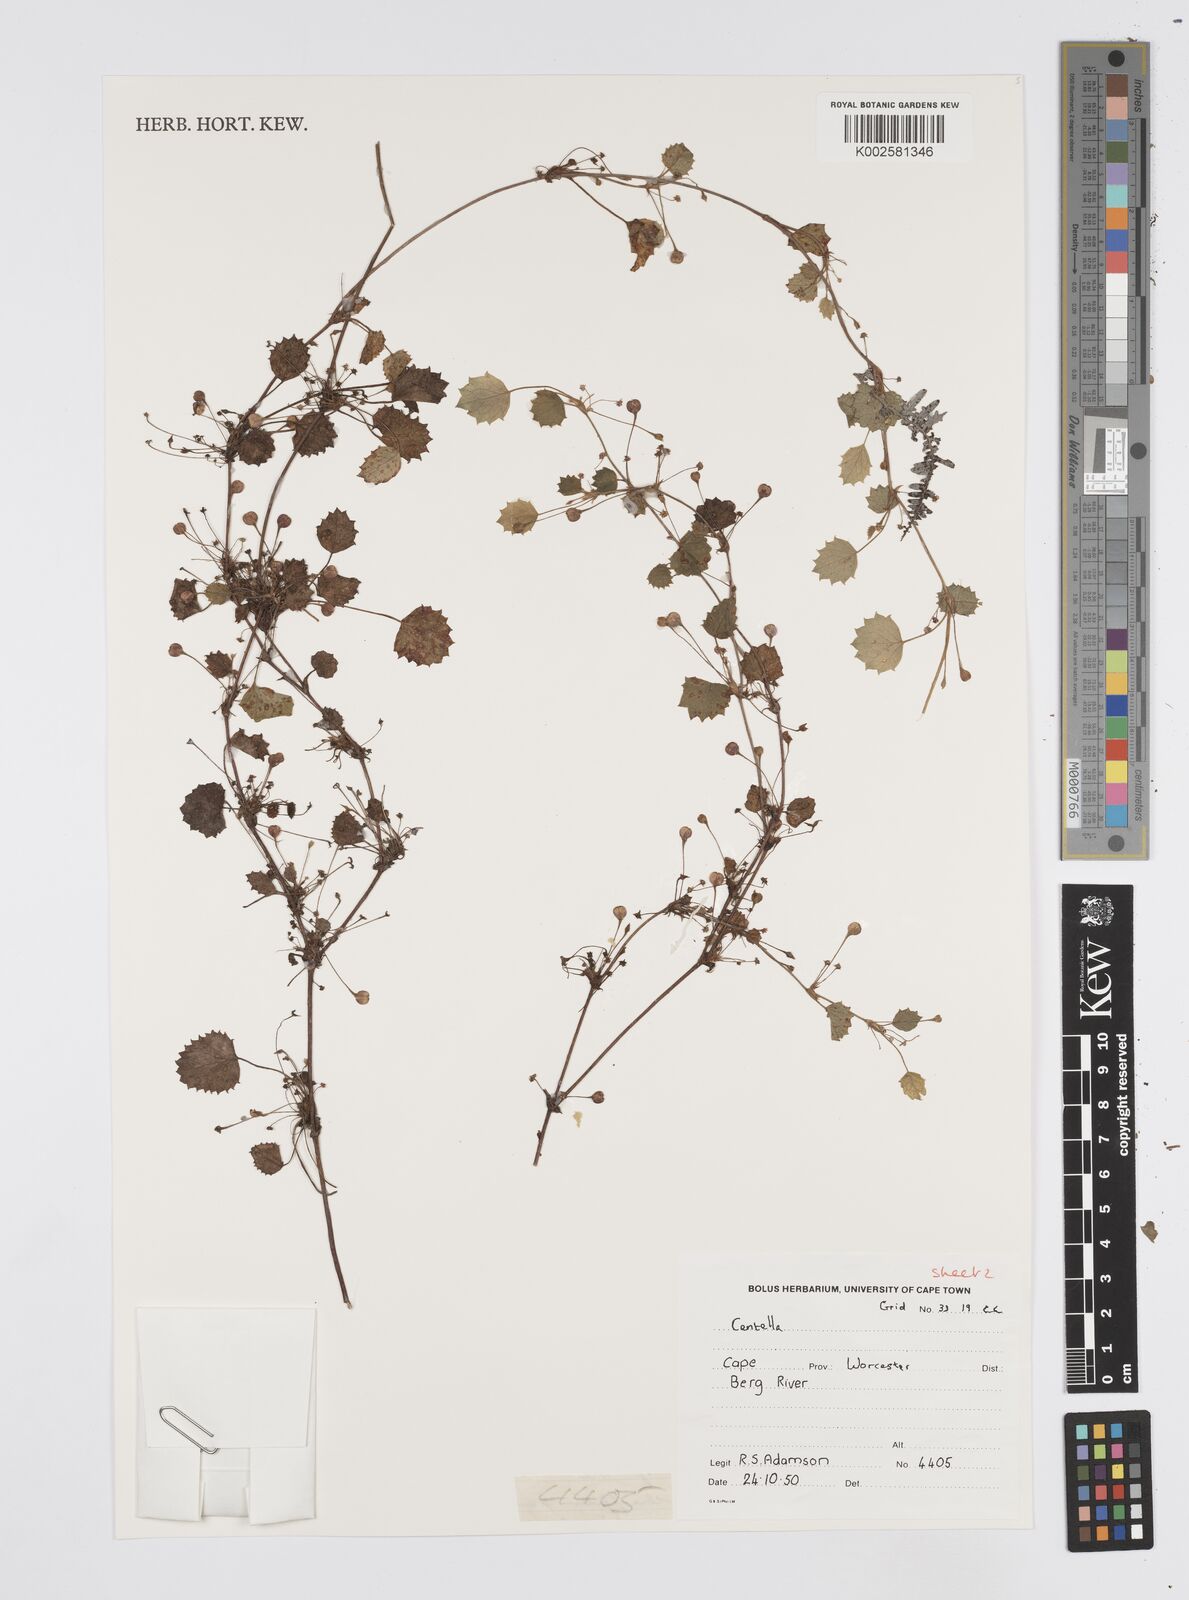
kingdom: Plantae
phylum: Tracheophyta
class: Magnoliopsida
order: Apiales
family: Apiaceae
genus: Centella
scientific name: Centella
